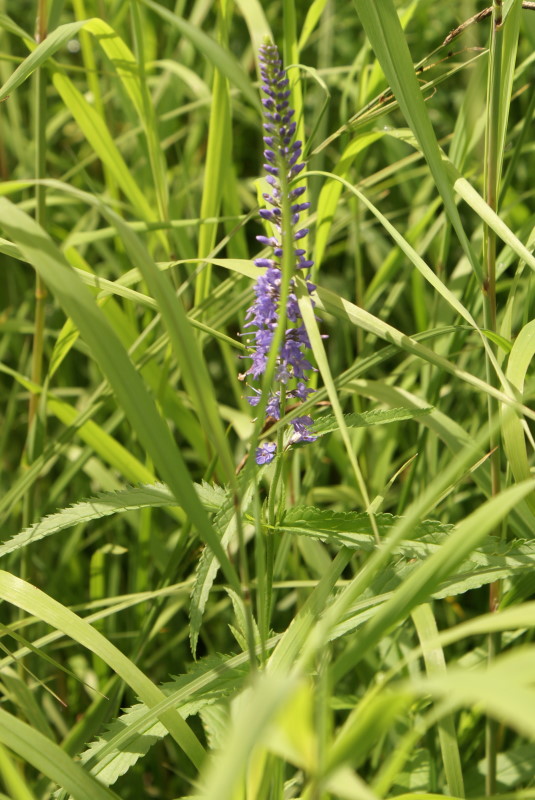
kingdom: Plantae
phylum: Tracheophyta
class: Magnoliopsida
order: Lamiales
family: Plantaginaceae
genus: Veronica
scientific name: Veronica longifolia
